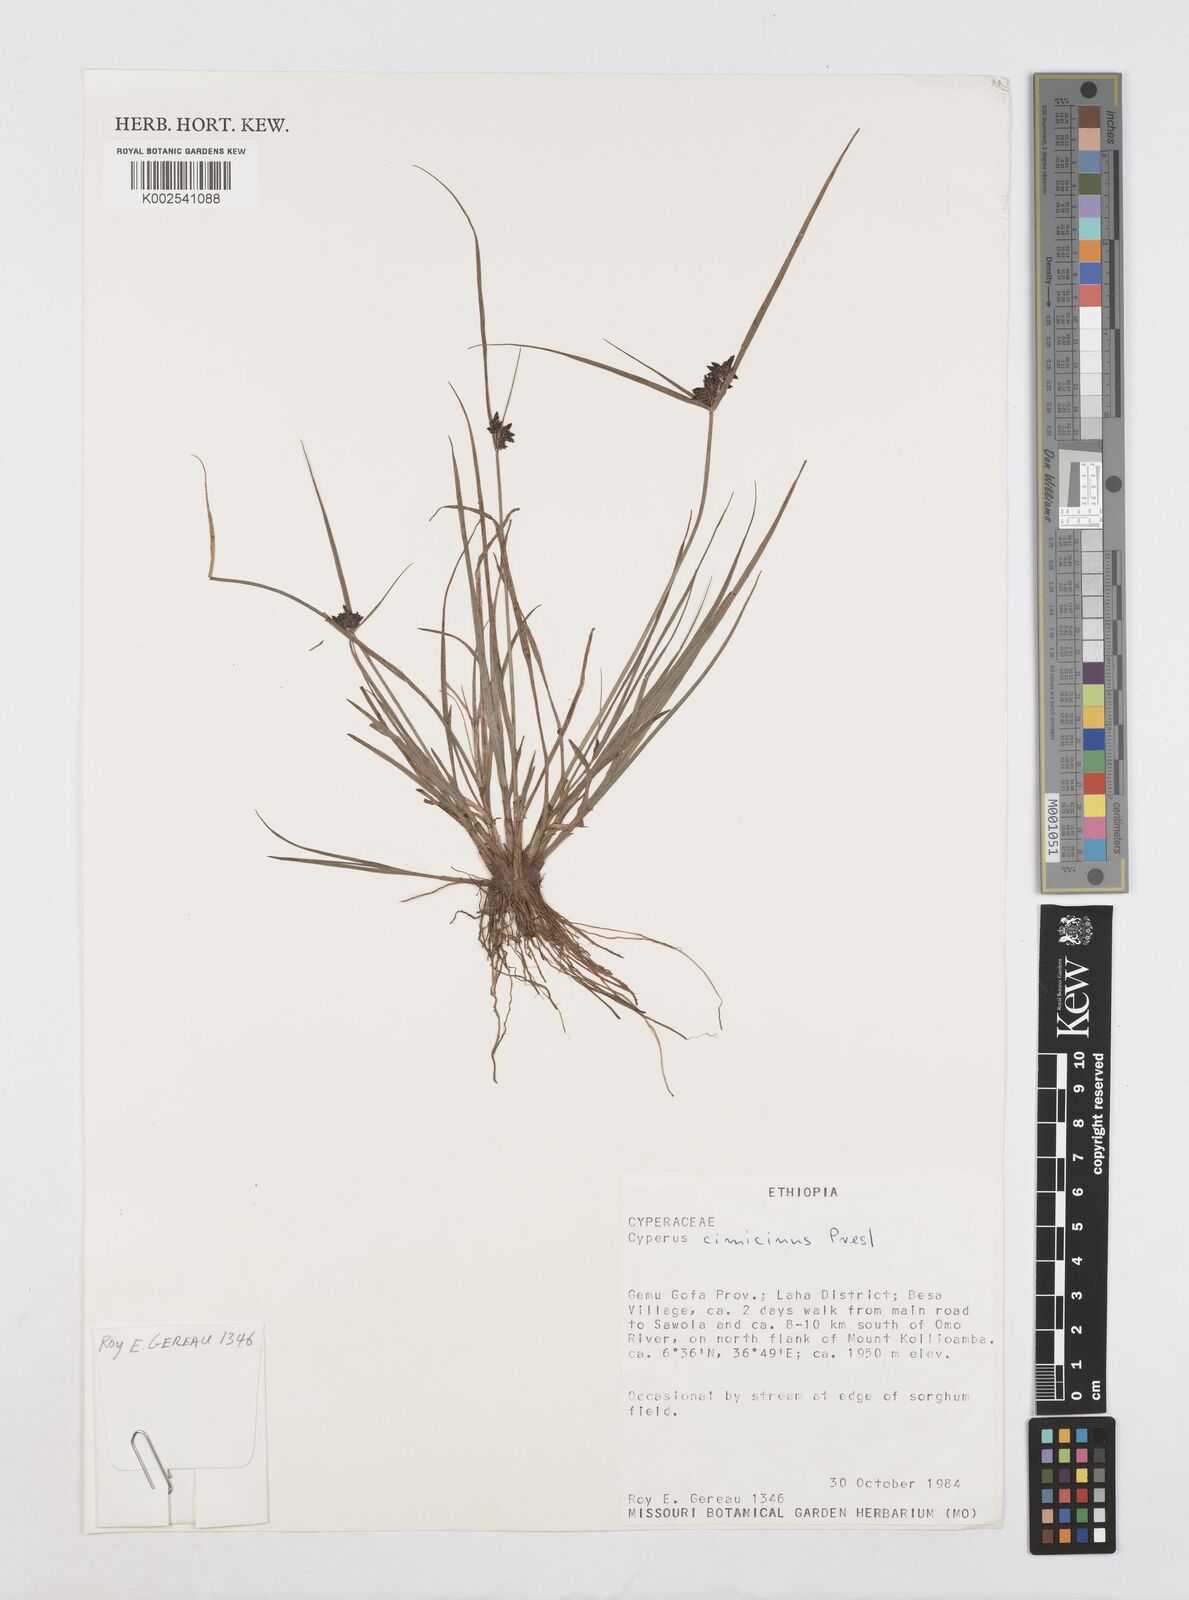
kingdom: Plantae
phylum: Tracheophyta
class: Liliopsida
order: Poales
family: Cyperaceae
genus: Cyperus
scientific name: Cyperus elegantulus
